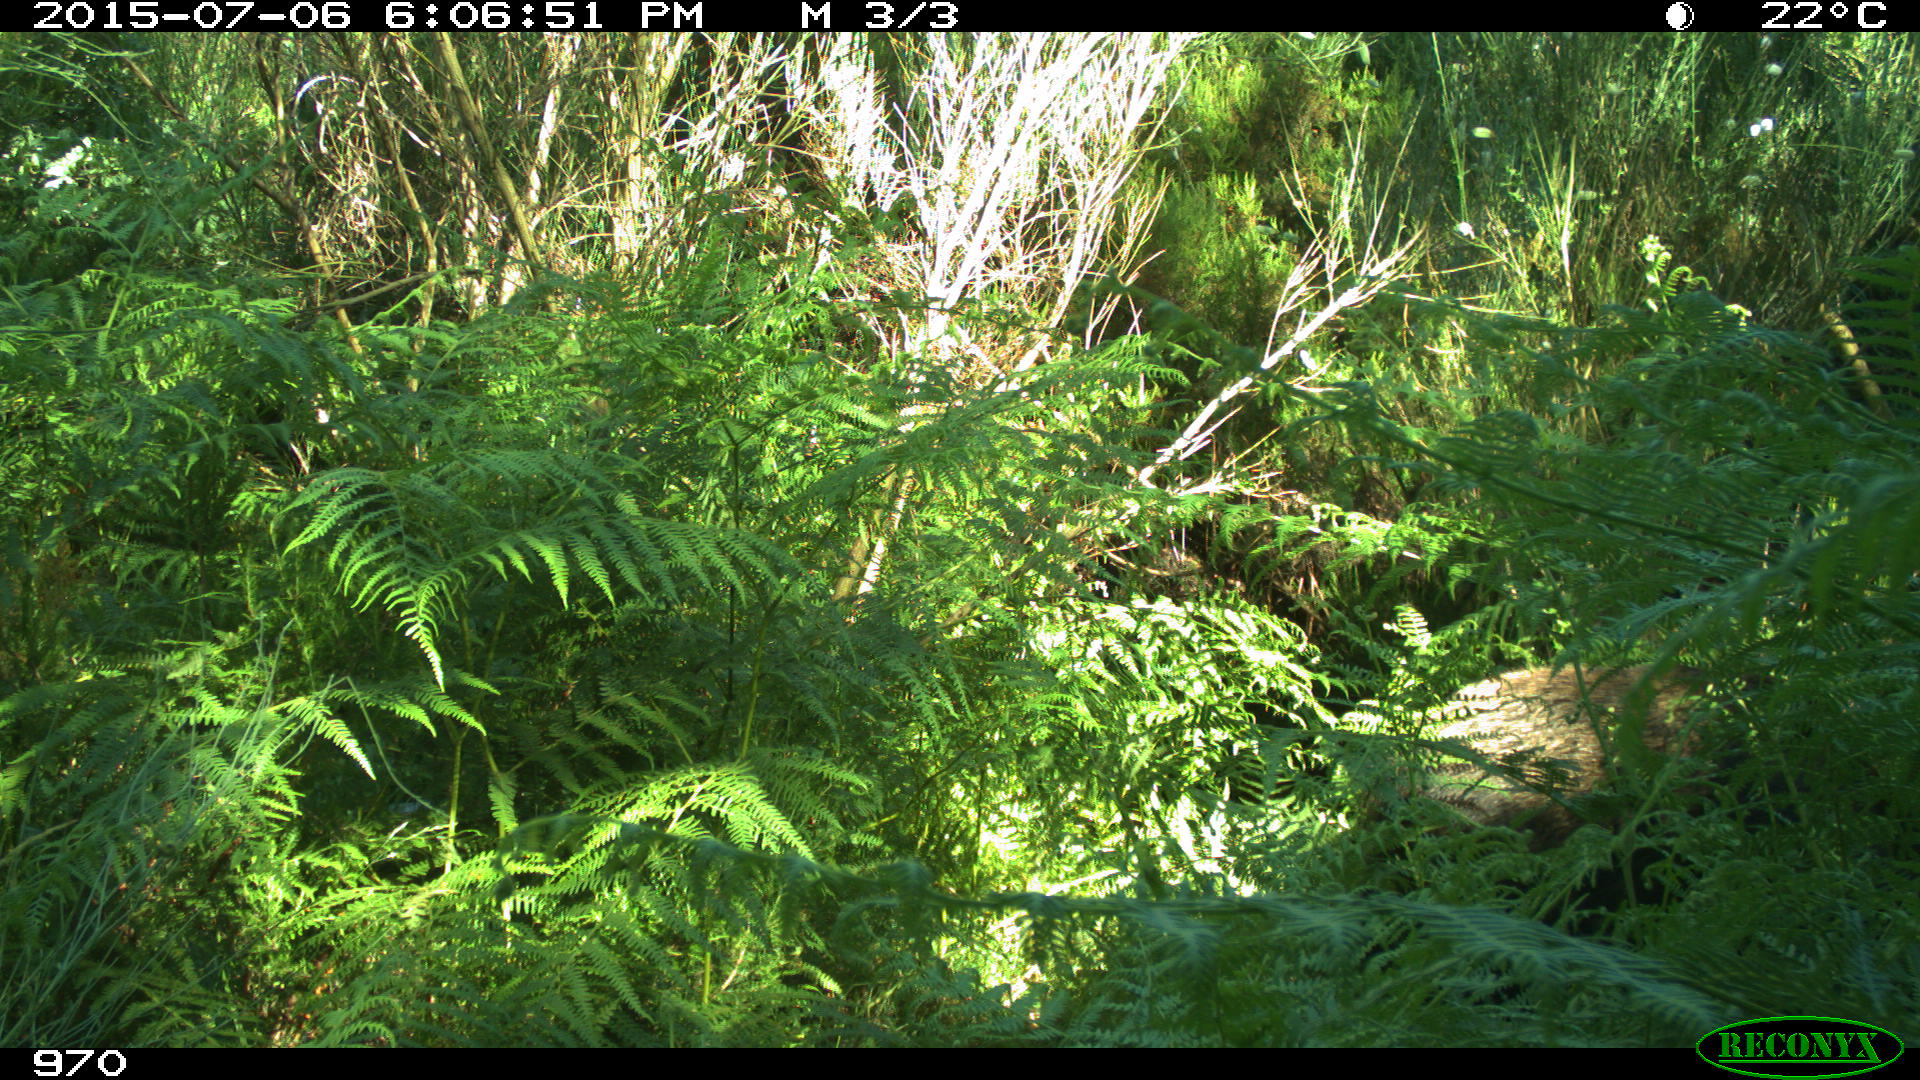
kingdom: Animalia
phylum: Chordata
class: Mammalia
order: Artiodactyla
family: Suidae
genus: Sus
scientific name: Sus scrofa
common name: Wild boar
